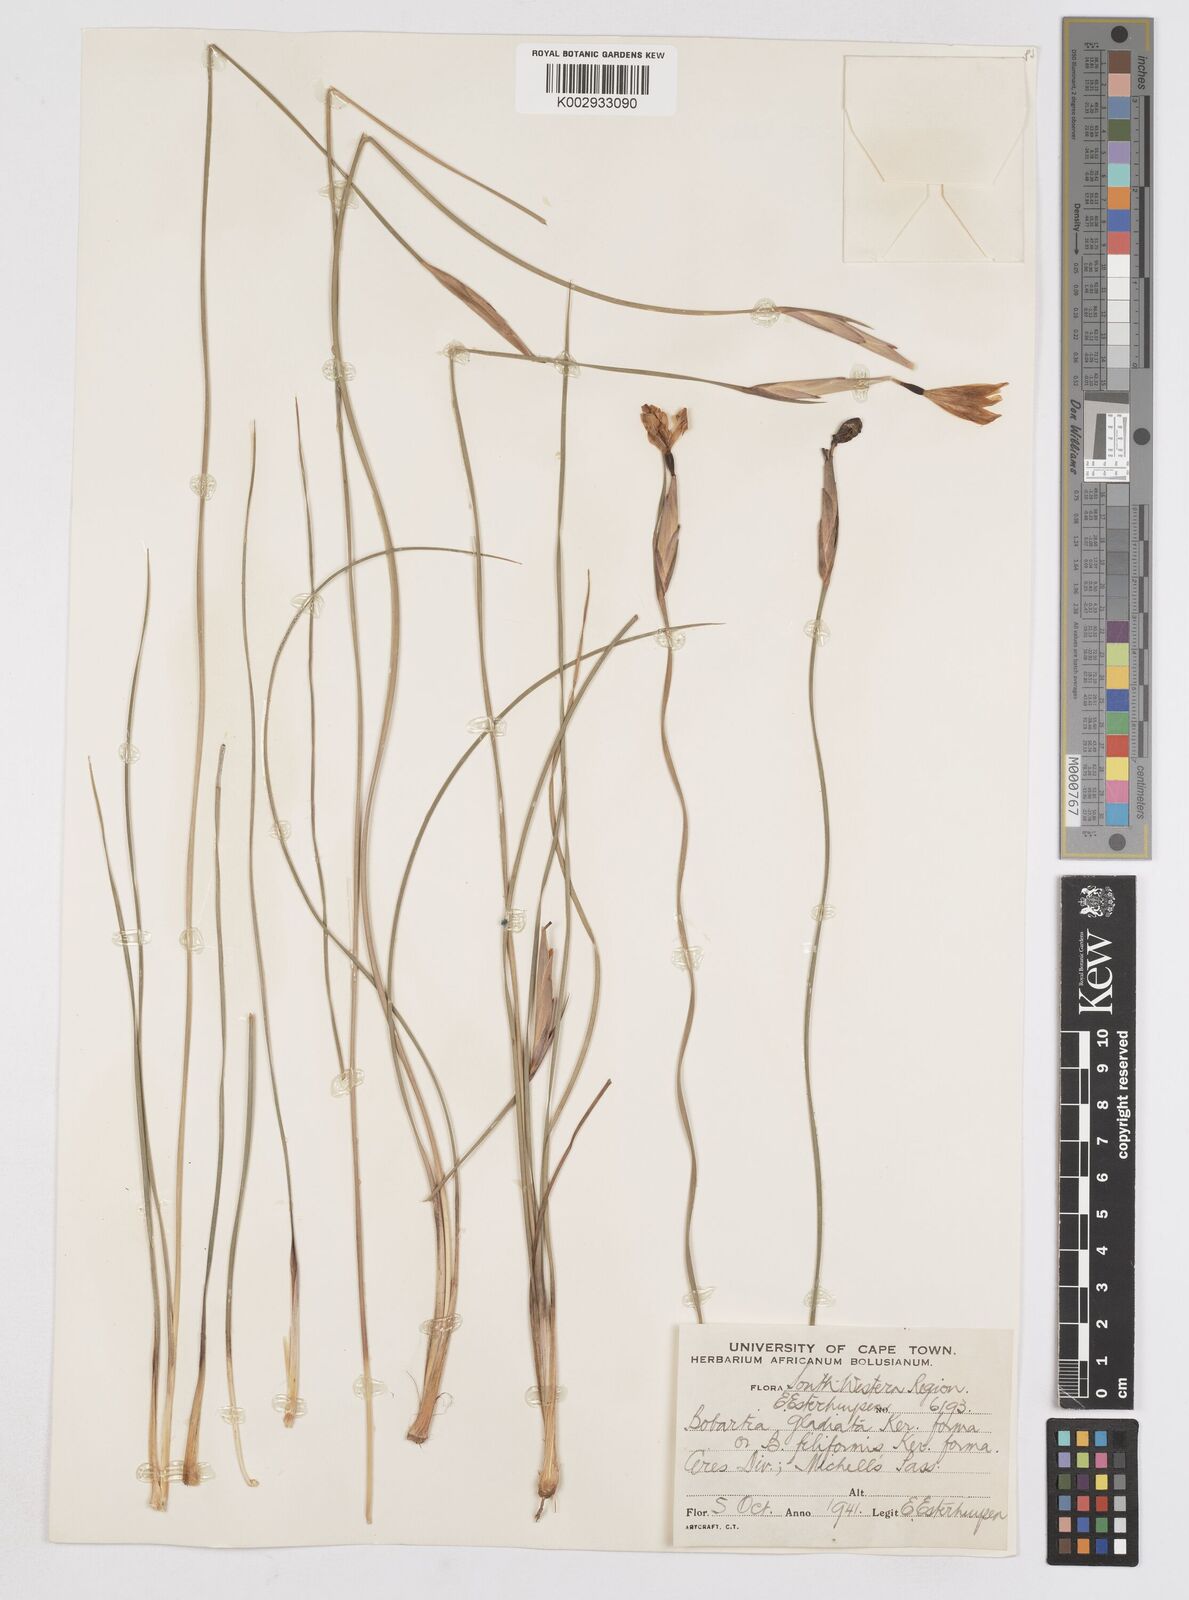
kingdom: Plantae
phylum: Tracheophyta
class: Liliopsida
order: Asparagales
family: Iridaceae
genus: Bobartia
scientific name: Bobartia gladiata
